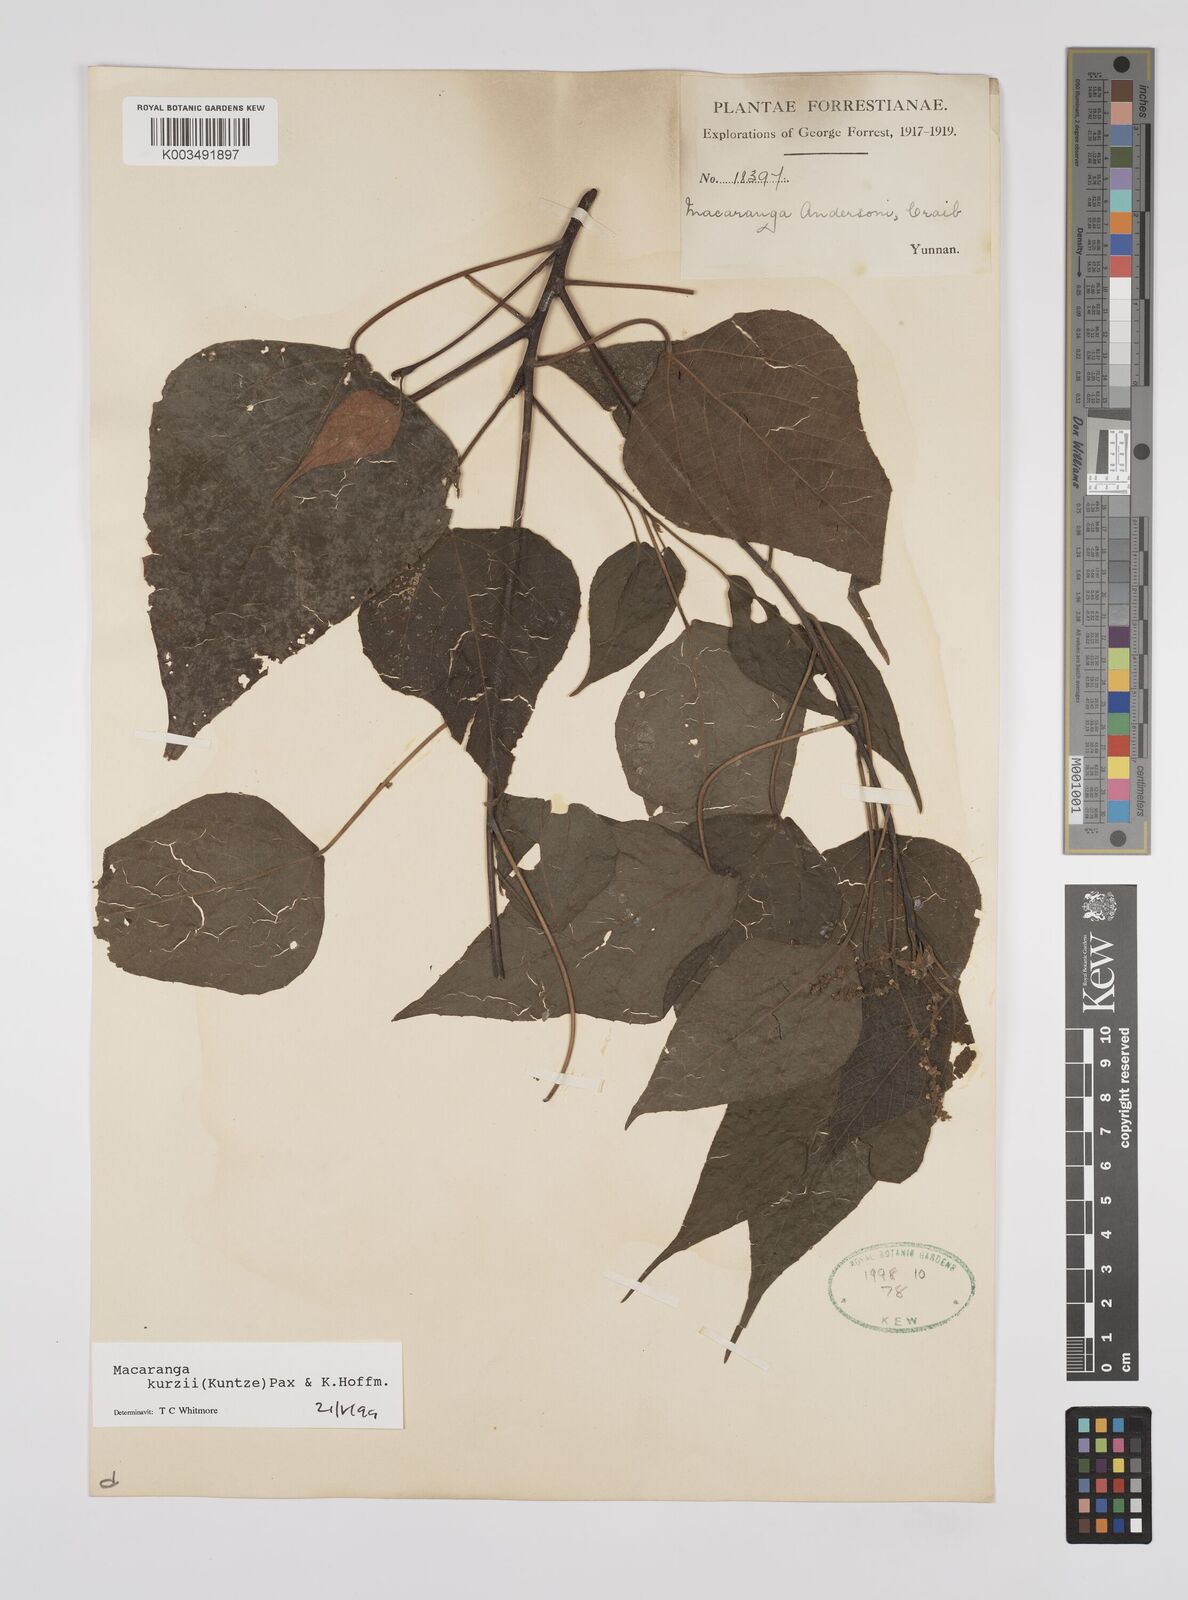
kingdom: Plantae
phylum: Tracheophyta
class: Magnoliopsida
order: Malpighiales
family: Euphorbiaceae
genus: Macaranga
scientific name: Macaranga kurzii
